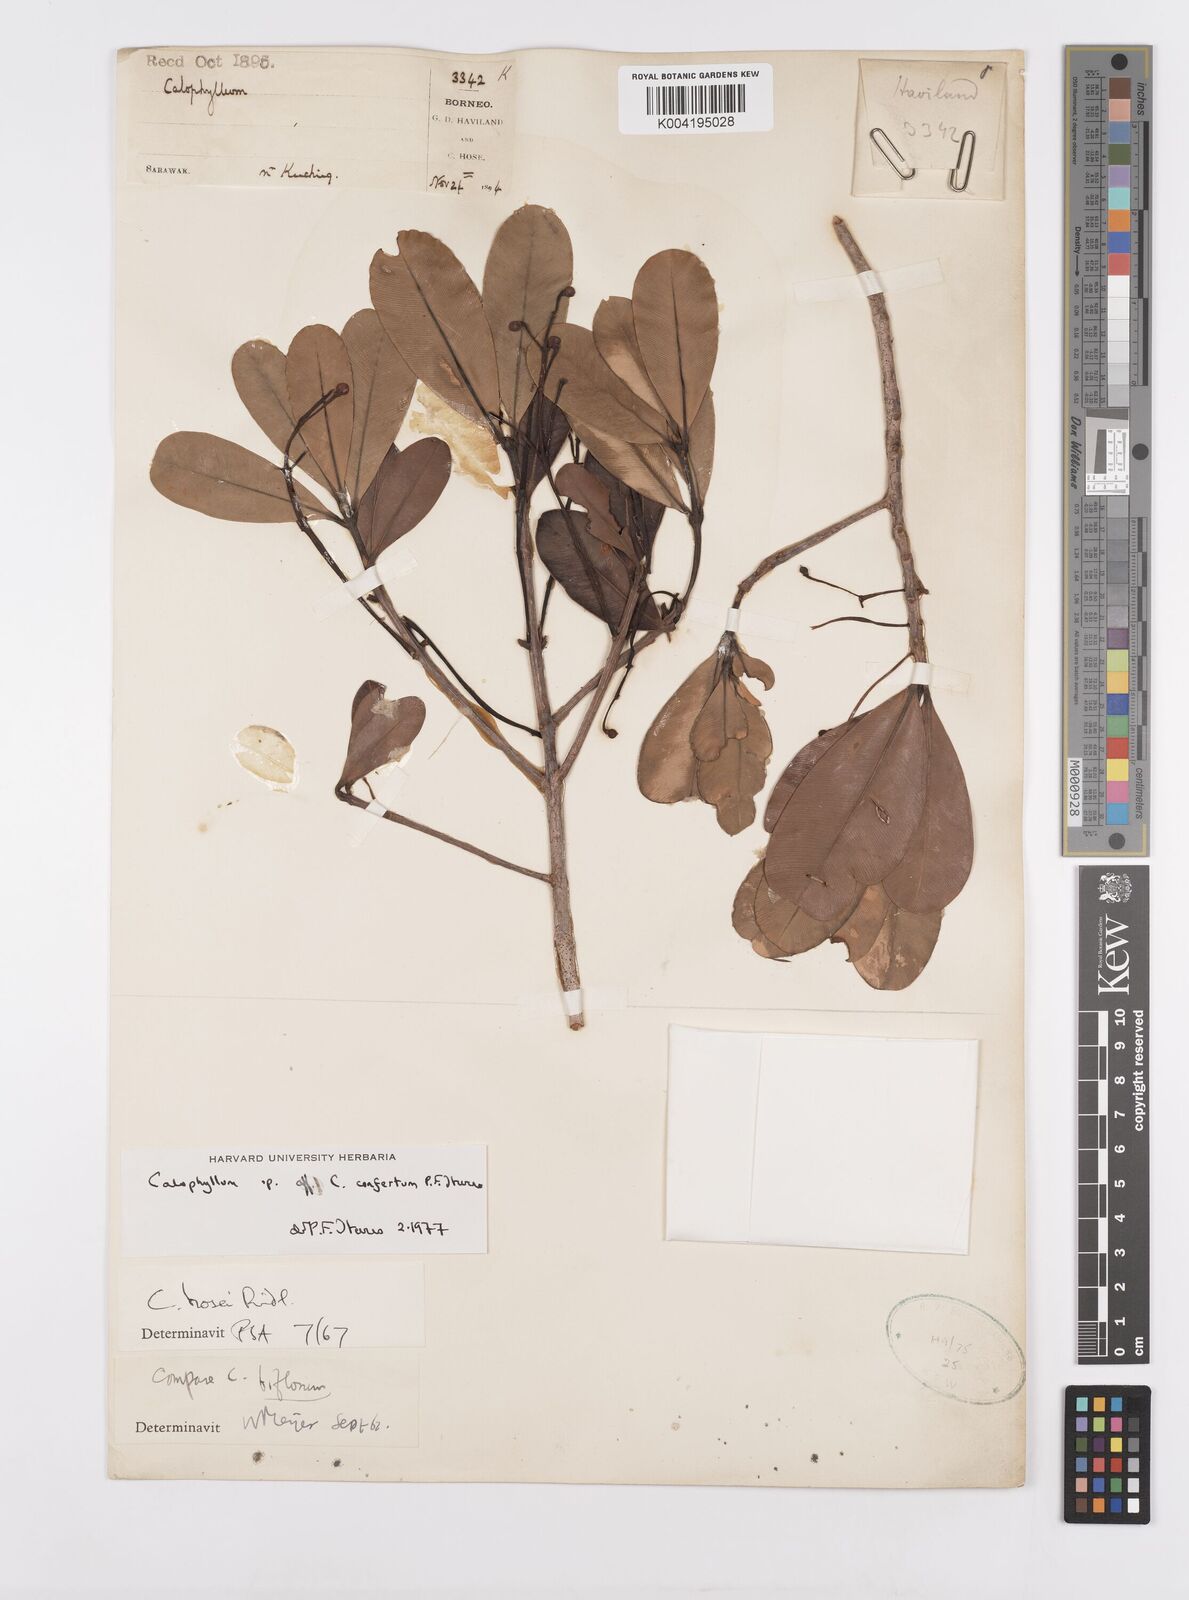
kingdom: Plantae
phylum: Tracheophyta
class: Magnoliopsida
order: Malpighiales
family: Calophyllaceae
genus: Calophyllum
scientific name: Calophyllum confertum
